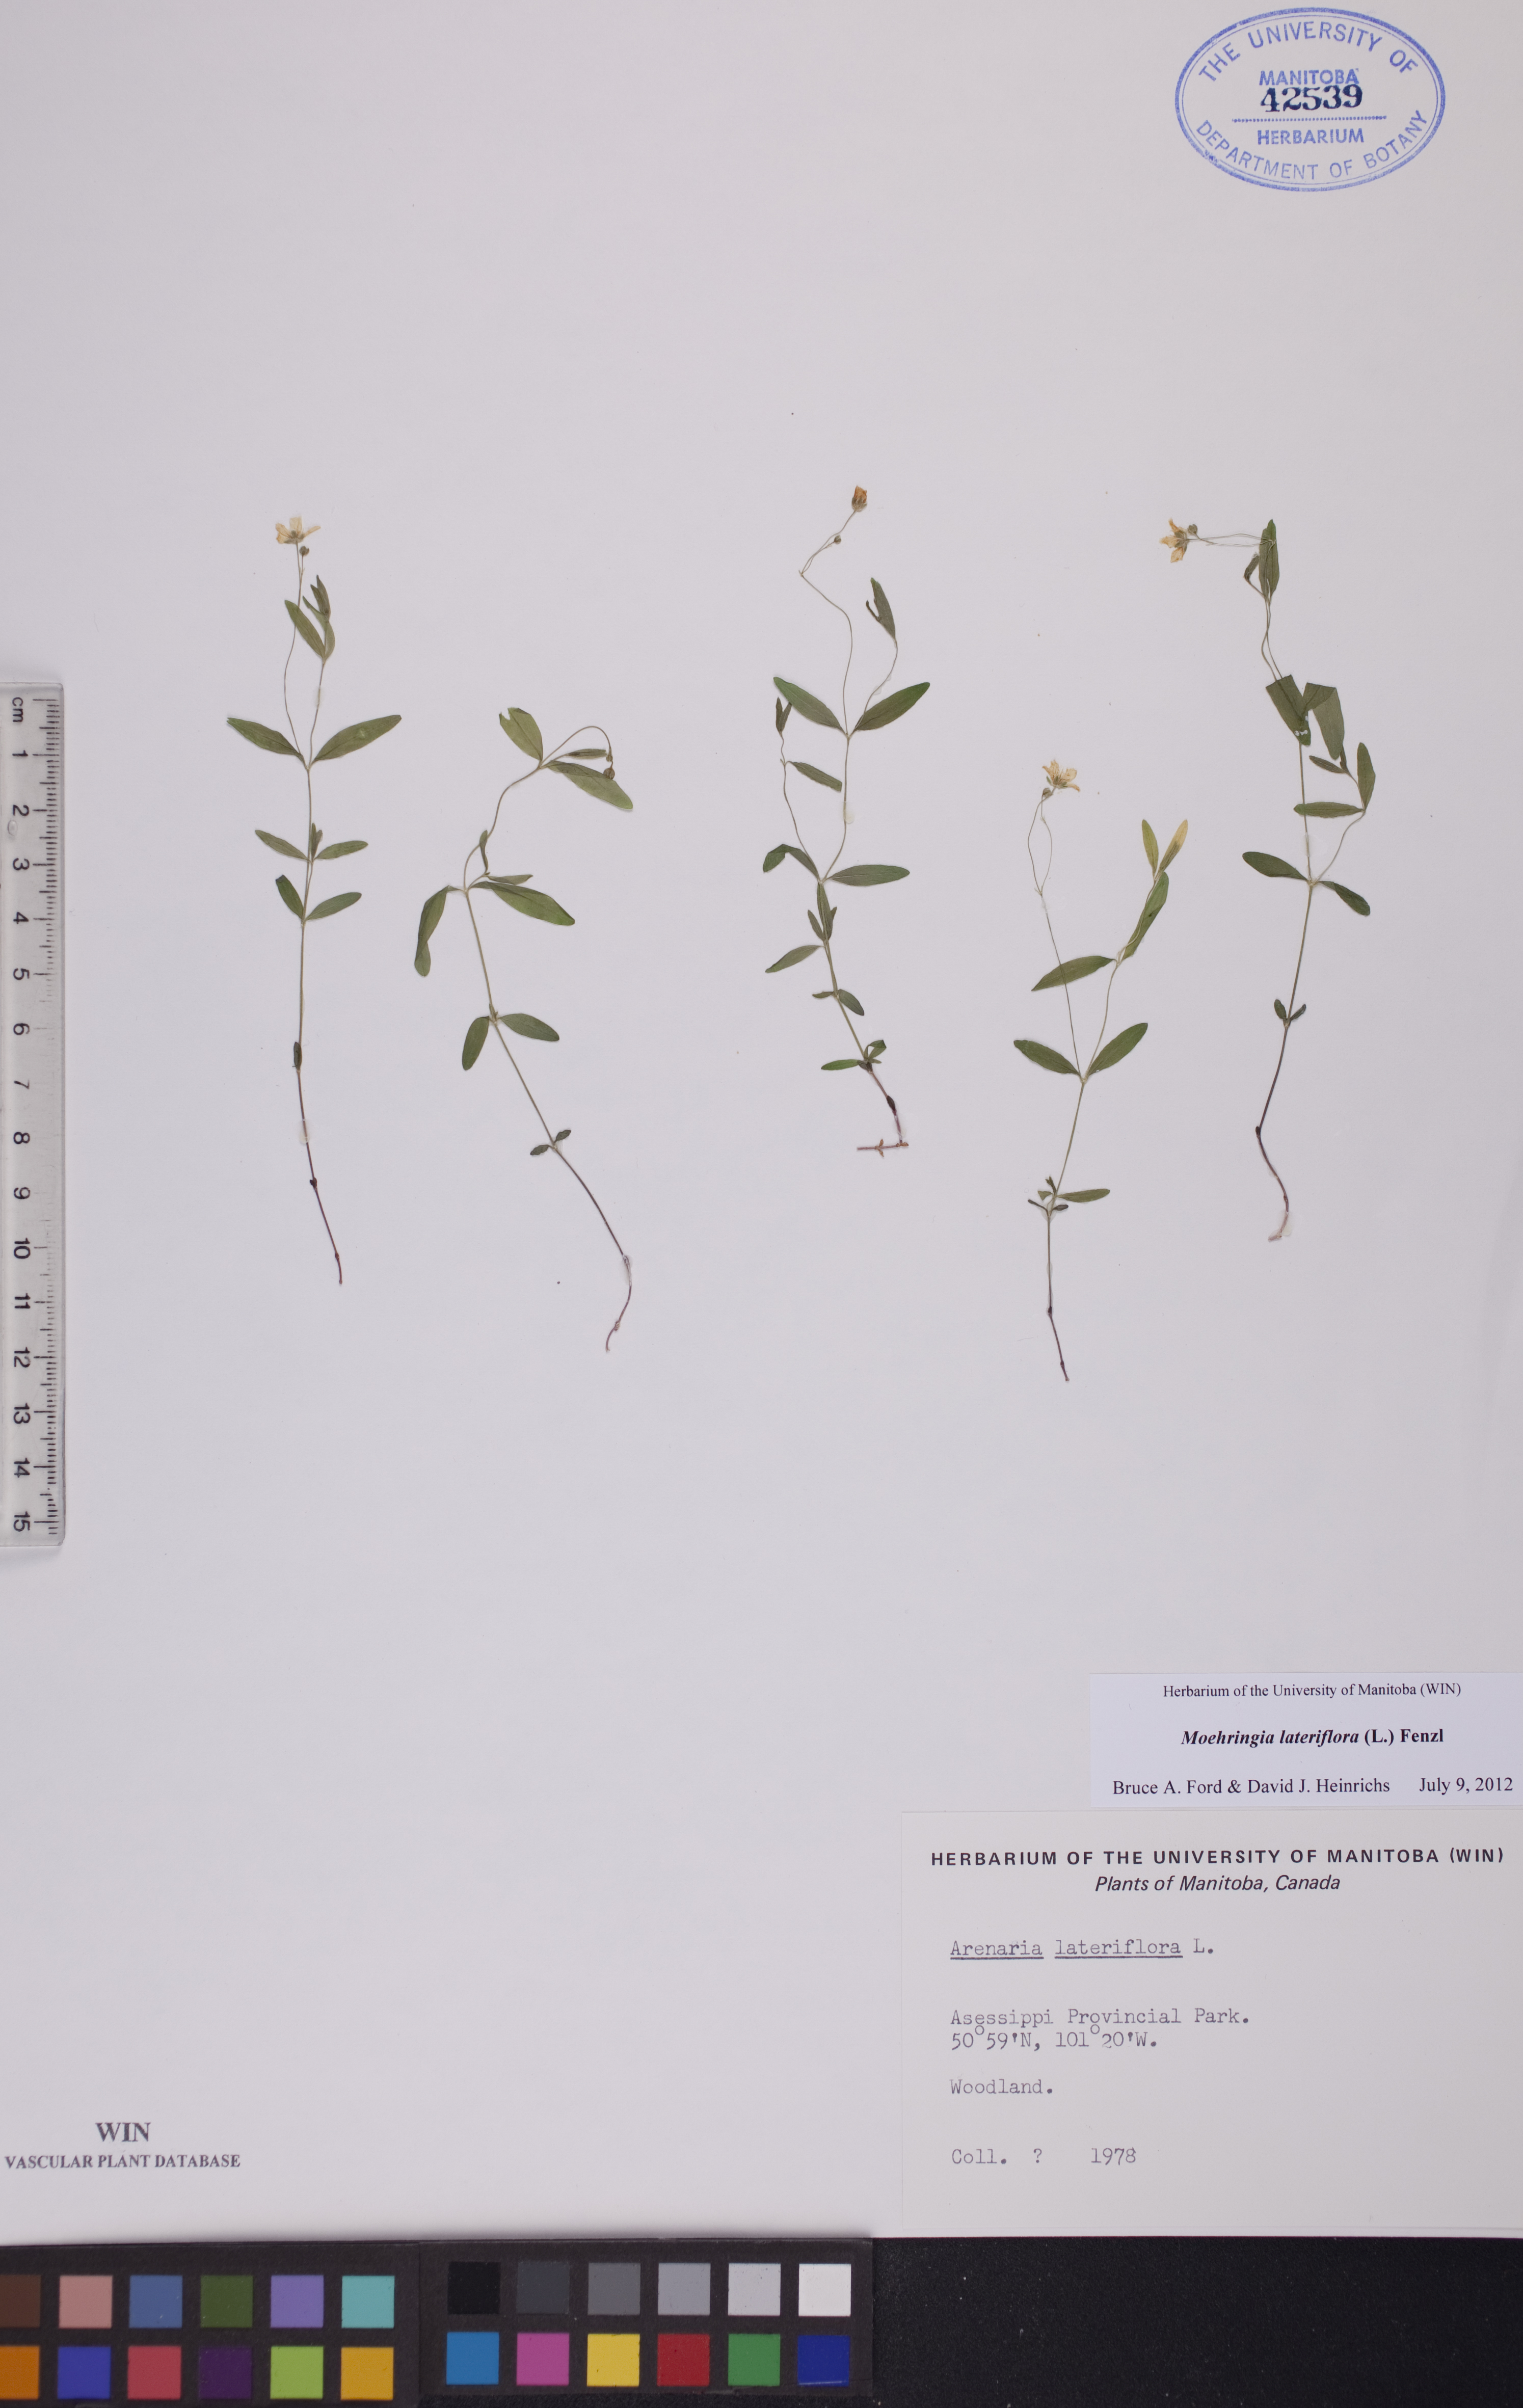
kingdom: Plantae
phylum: Tracheophyta
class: Magnoliopsida
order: Caryophyllales
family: Caryophyllaceae
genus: Moehringia
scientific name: Moehringia lateriflora
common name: Blunt-leaved sandwort
